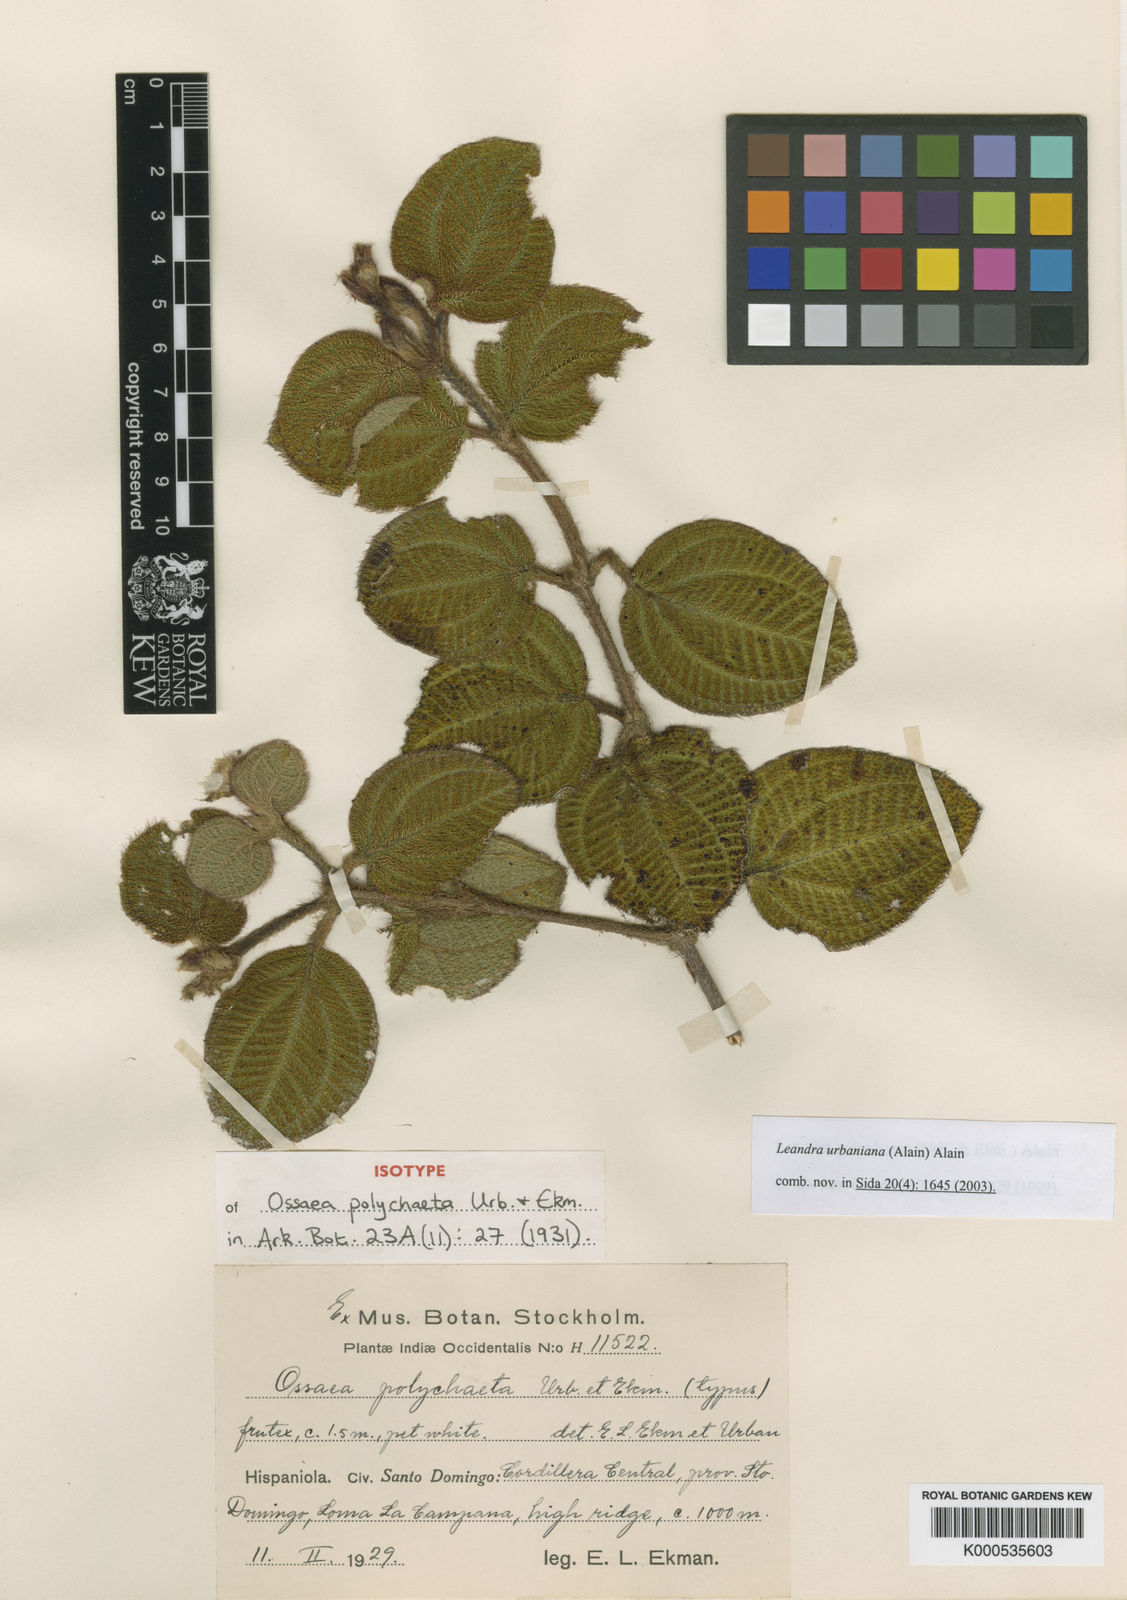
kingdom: Plantae
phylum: Tracheophyta
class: Magnoliopsida
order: Myrtales
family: Melastomataceae
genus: Miconia
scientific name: Miconia urbaniana
